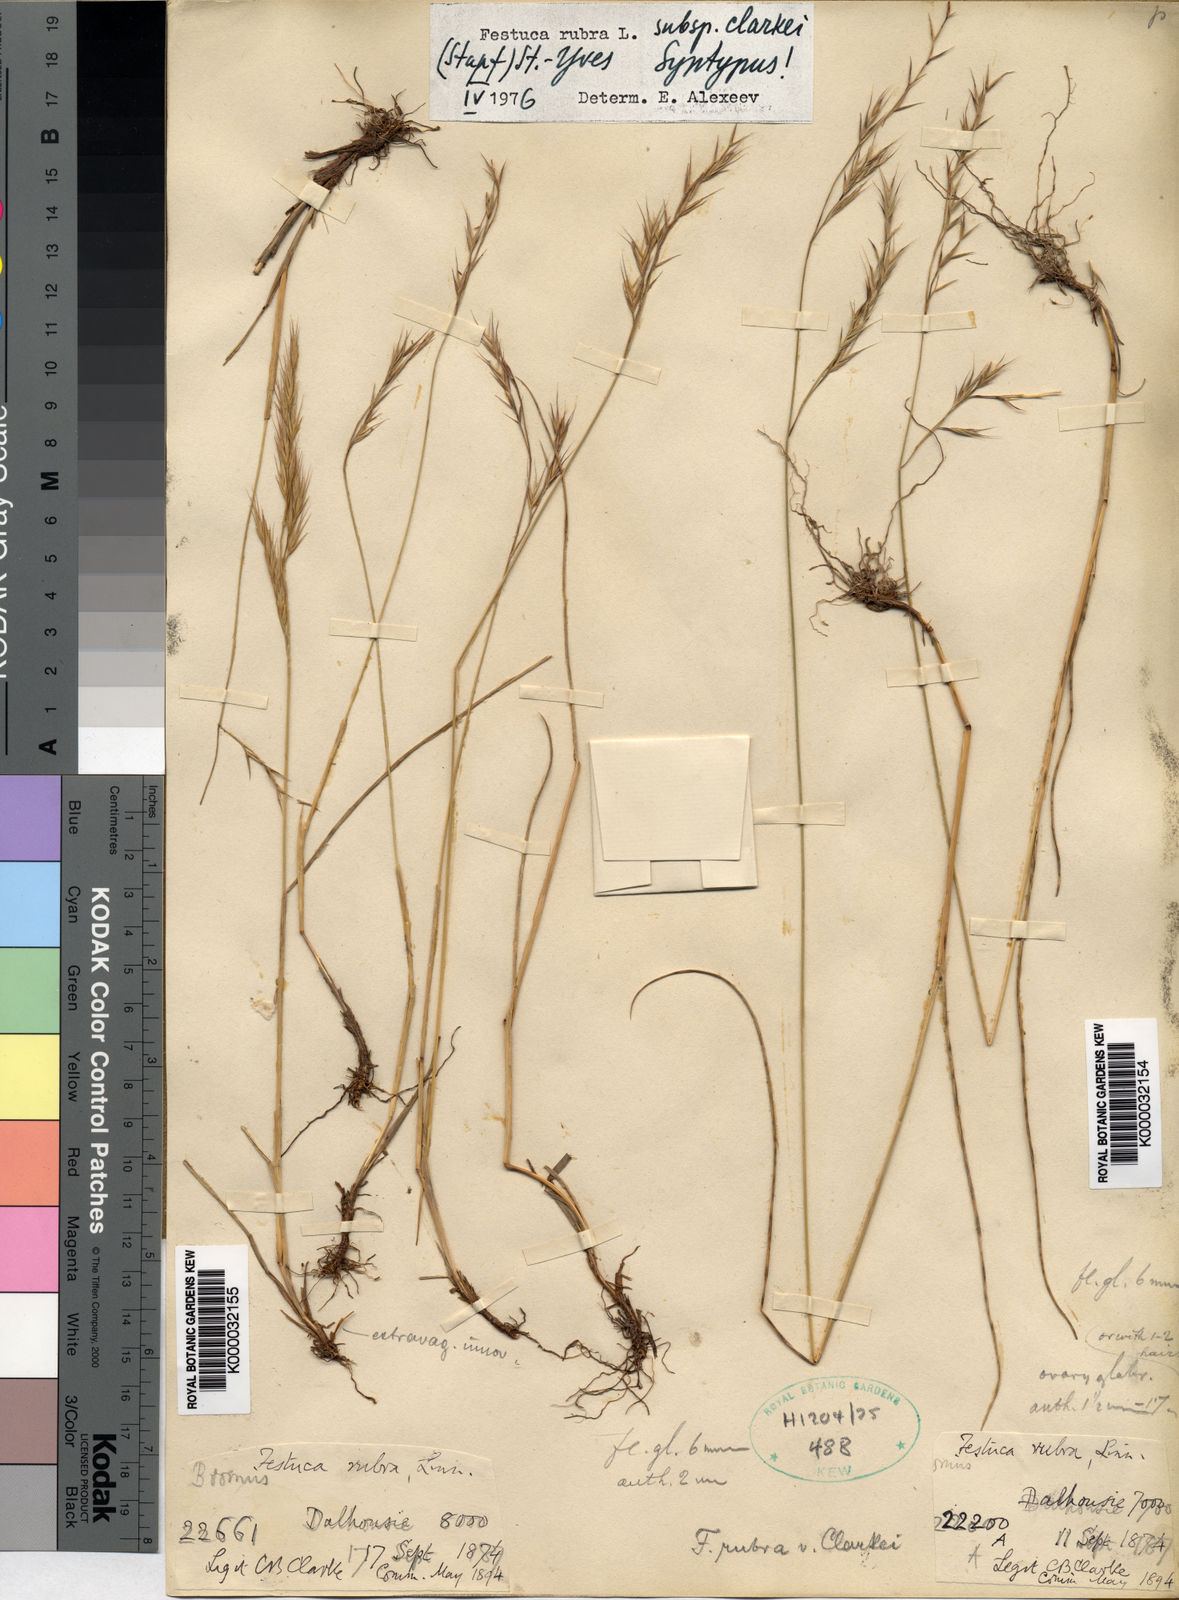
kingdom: Plantae
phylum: Tracheophyta
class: Liliopsida
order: Poales
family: Poaceae
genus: Festuca
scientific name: Festuca rubra
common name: Red fescue
